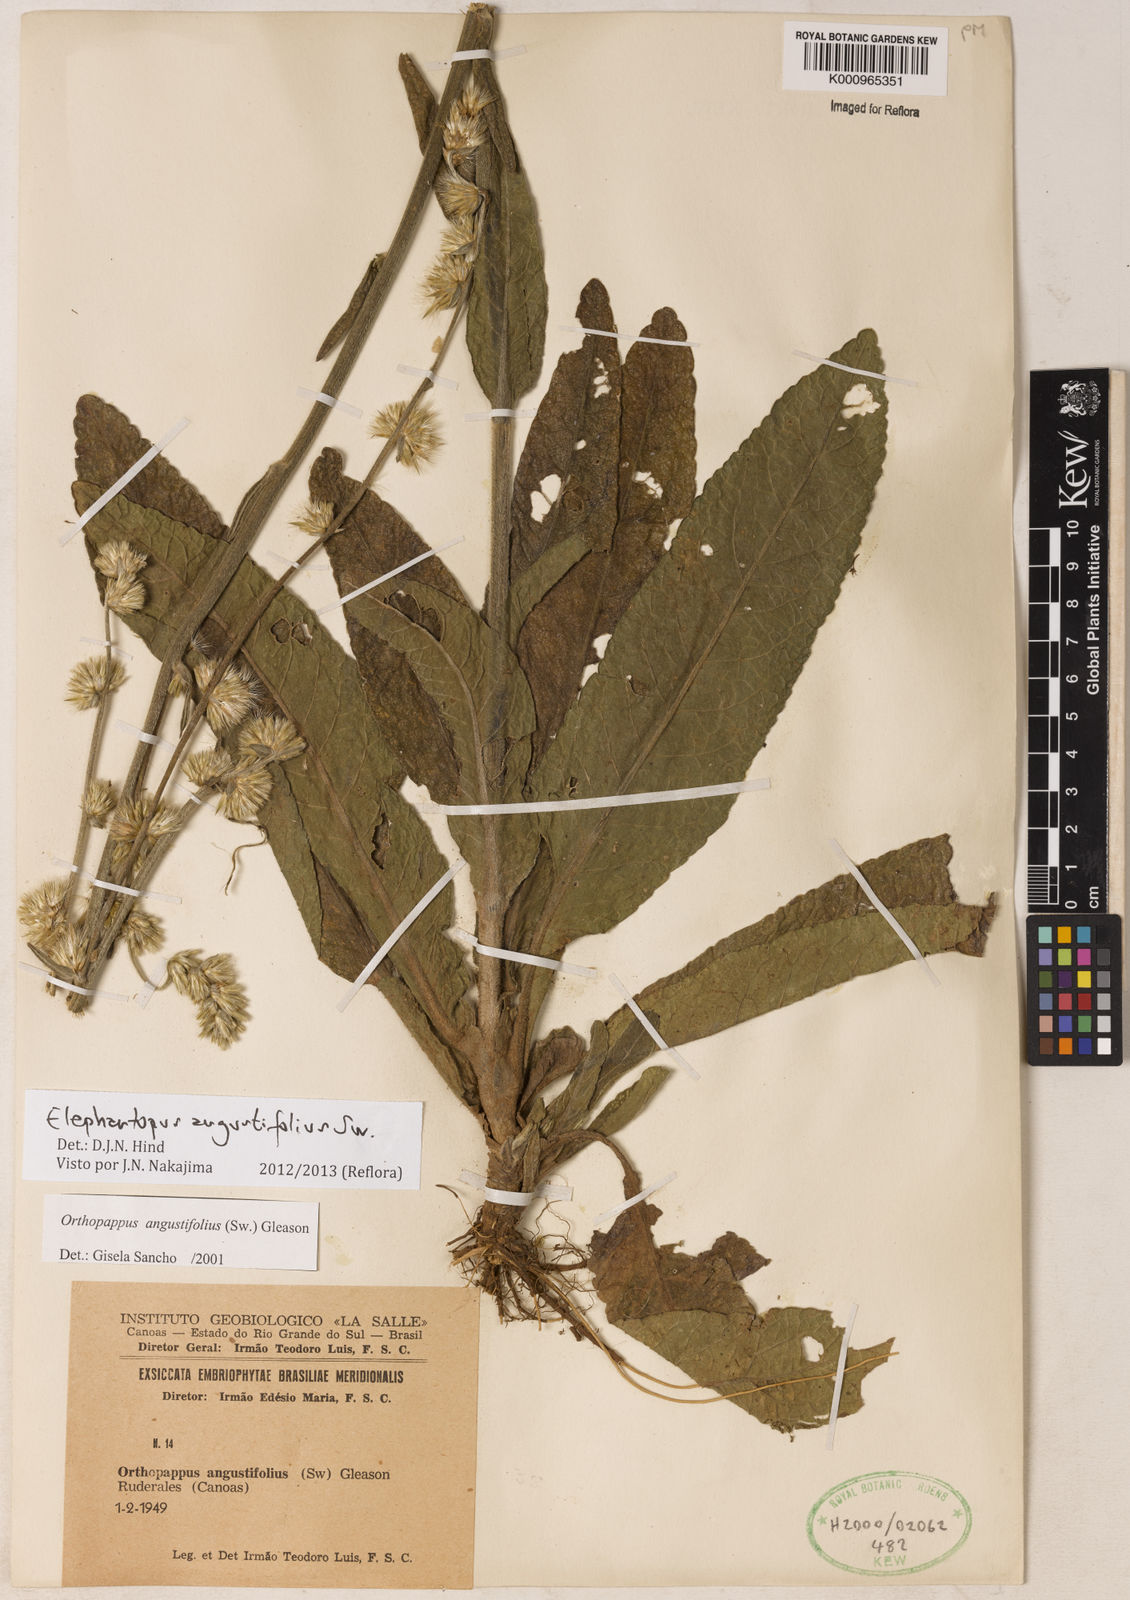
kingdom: Plantae
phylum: Tracheophyta
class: Magnoliopsida
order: Asterales
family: Asteraceae
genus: Orthopappus
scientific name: Orthopappus angustifolius
